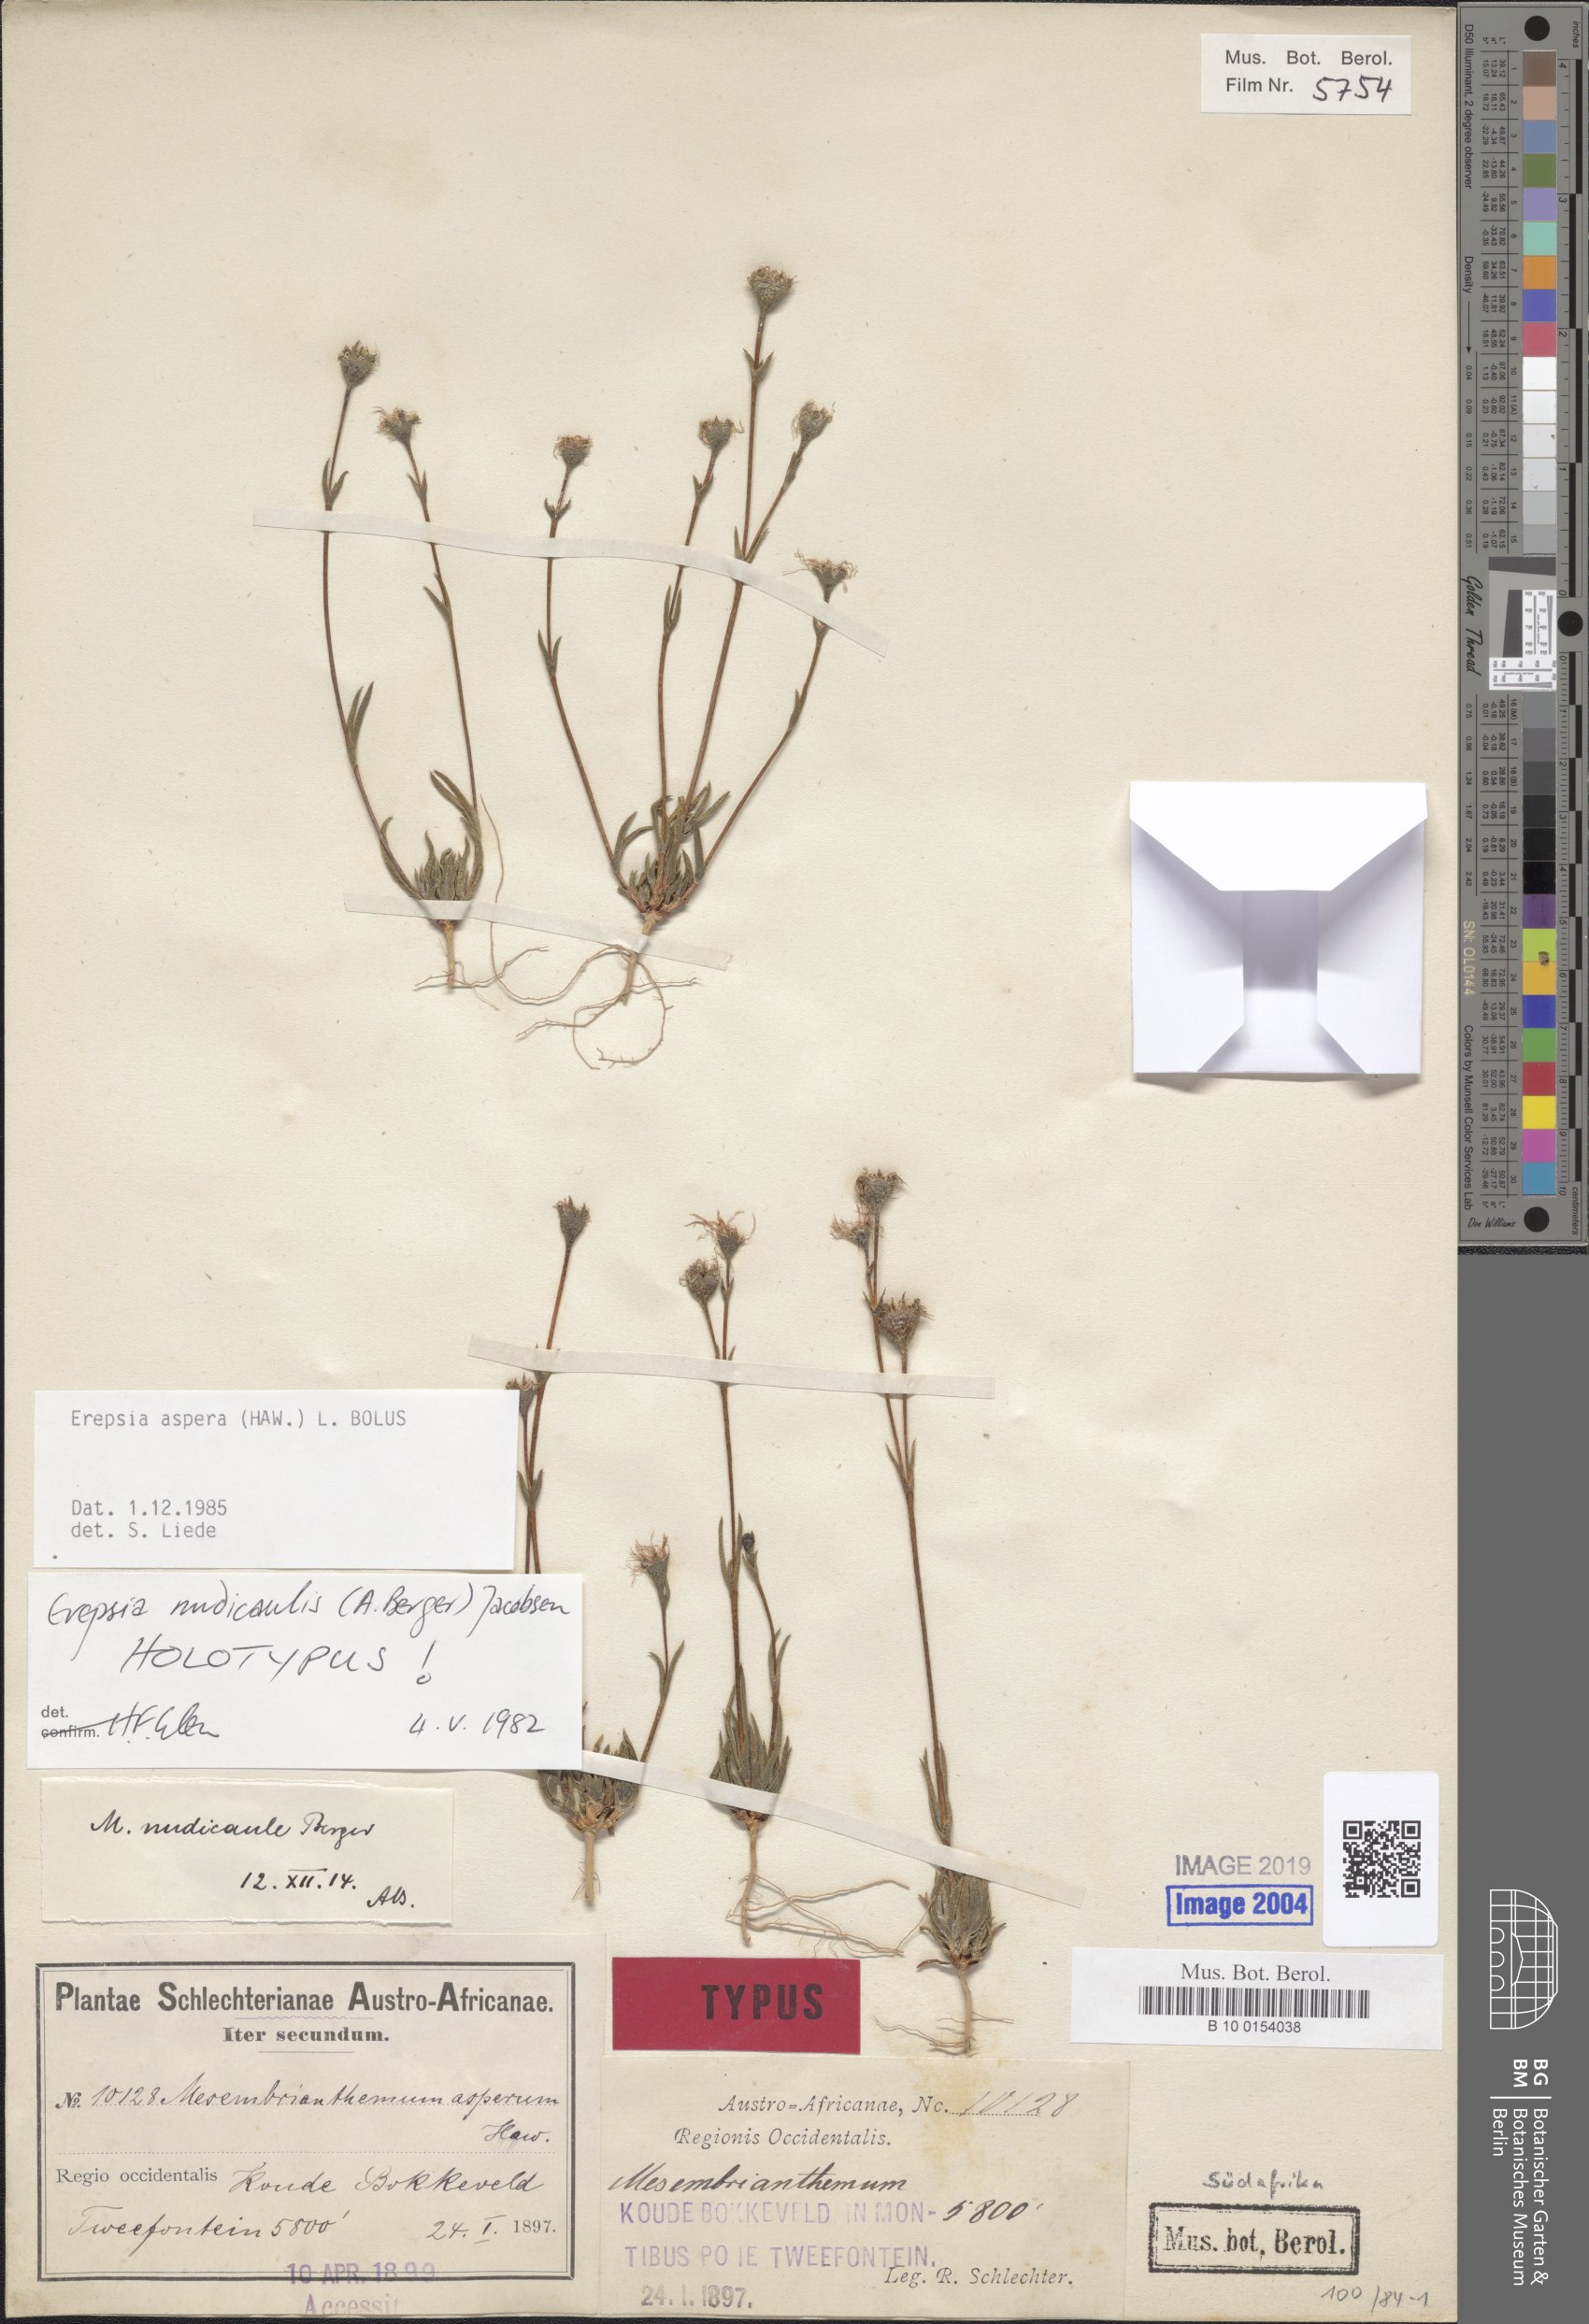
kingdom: Plantae
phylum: Tracheophyta
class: Magnoliopsida
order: Caryophyllales
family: Aizoaceae
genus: Erepsia
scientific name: Erepsia aspera
